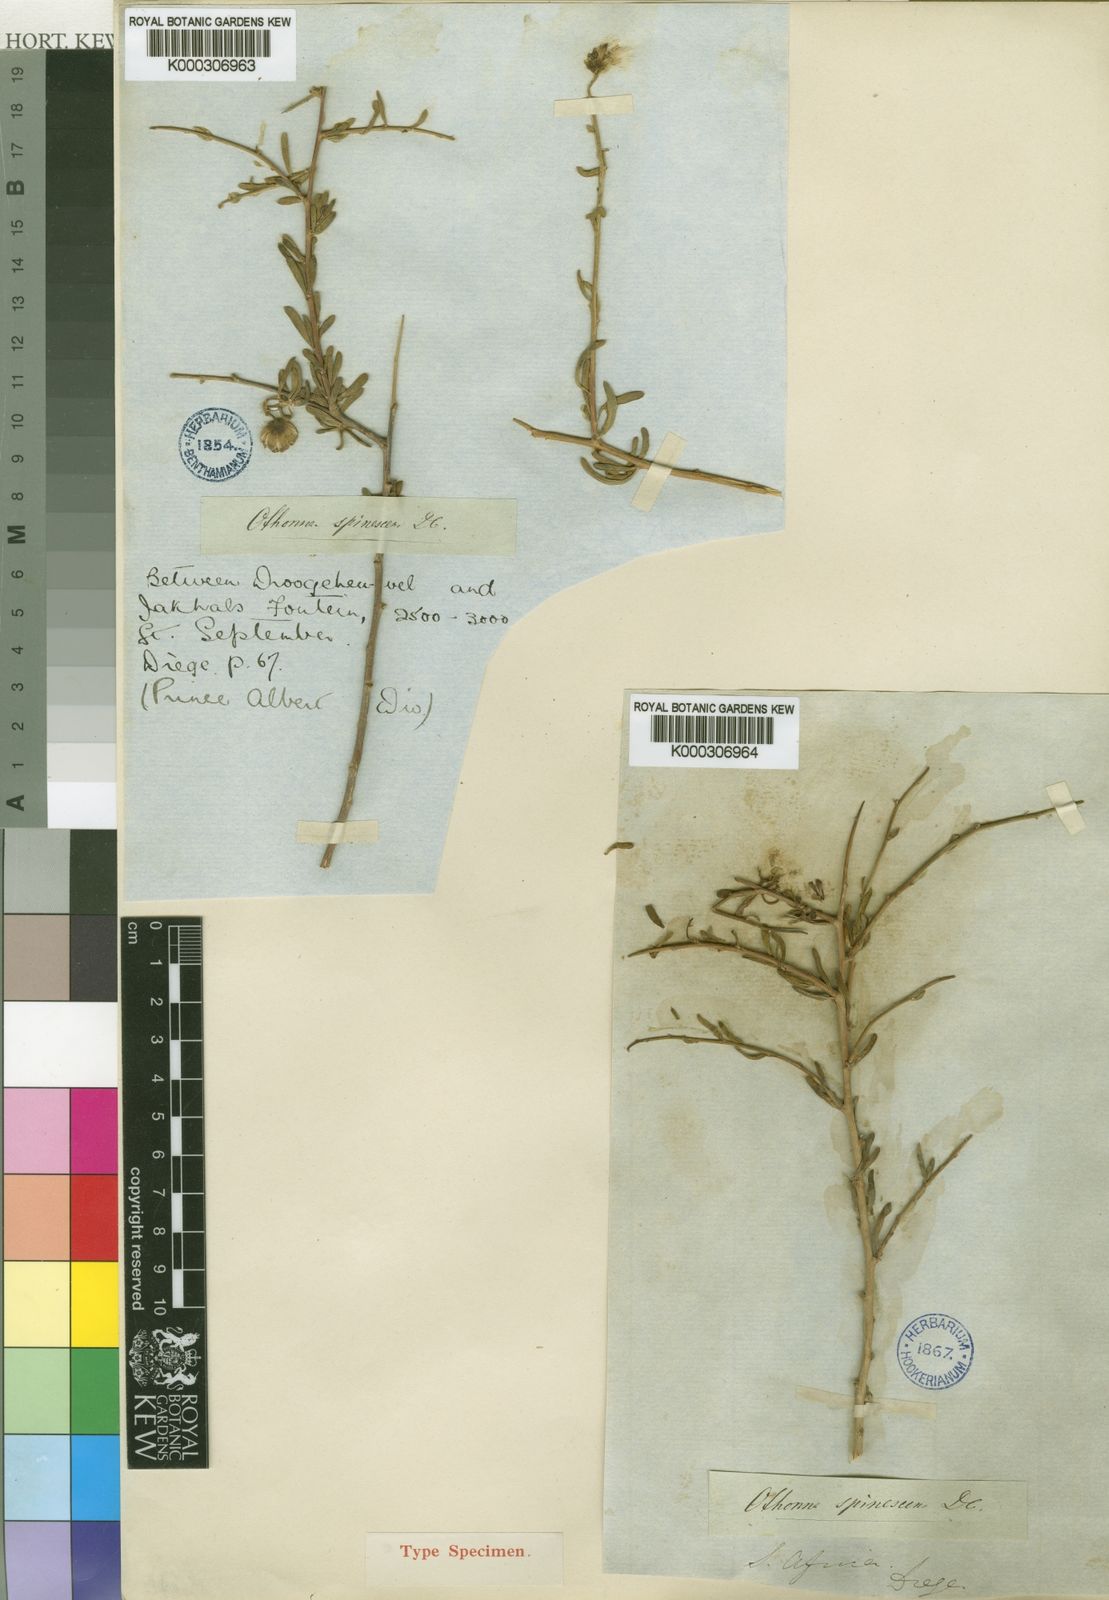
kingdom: Plantae
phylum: Tracheophyta
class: Magnoliopsida
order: Asterales
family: Asteraceae
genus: Othonna
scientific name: Othonna spinescens
